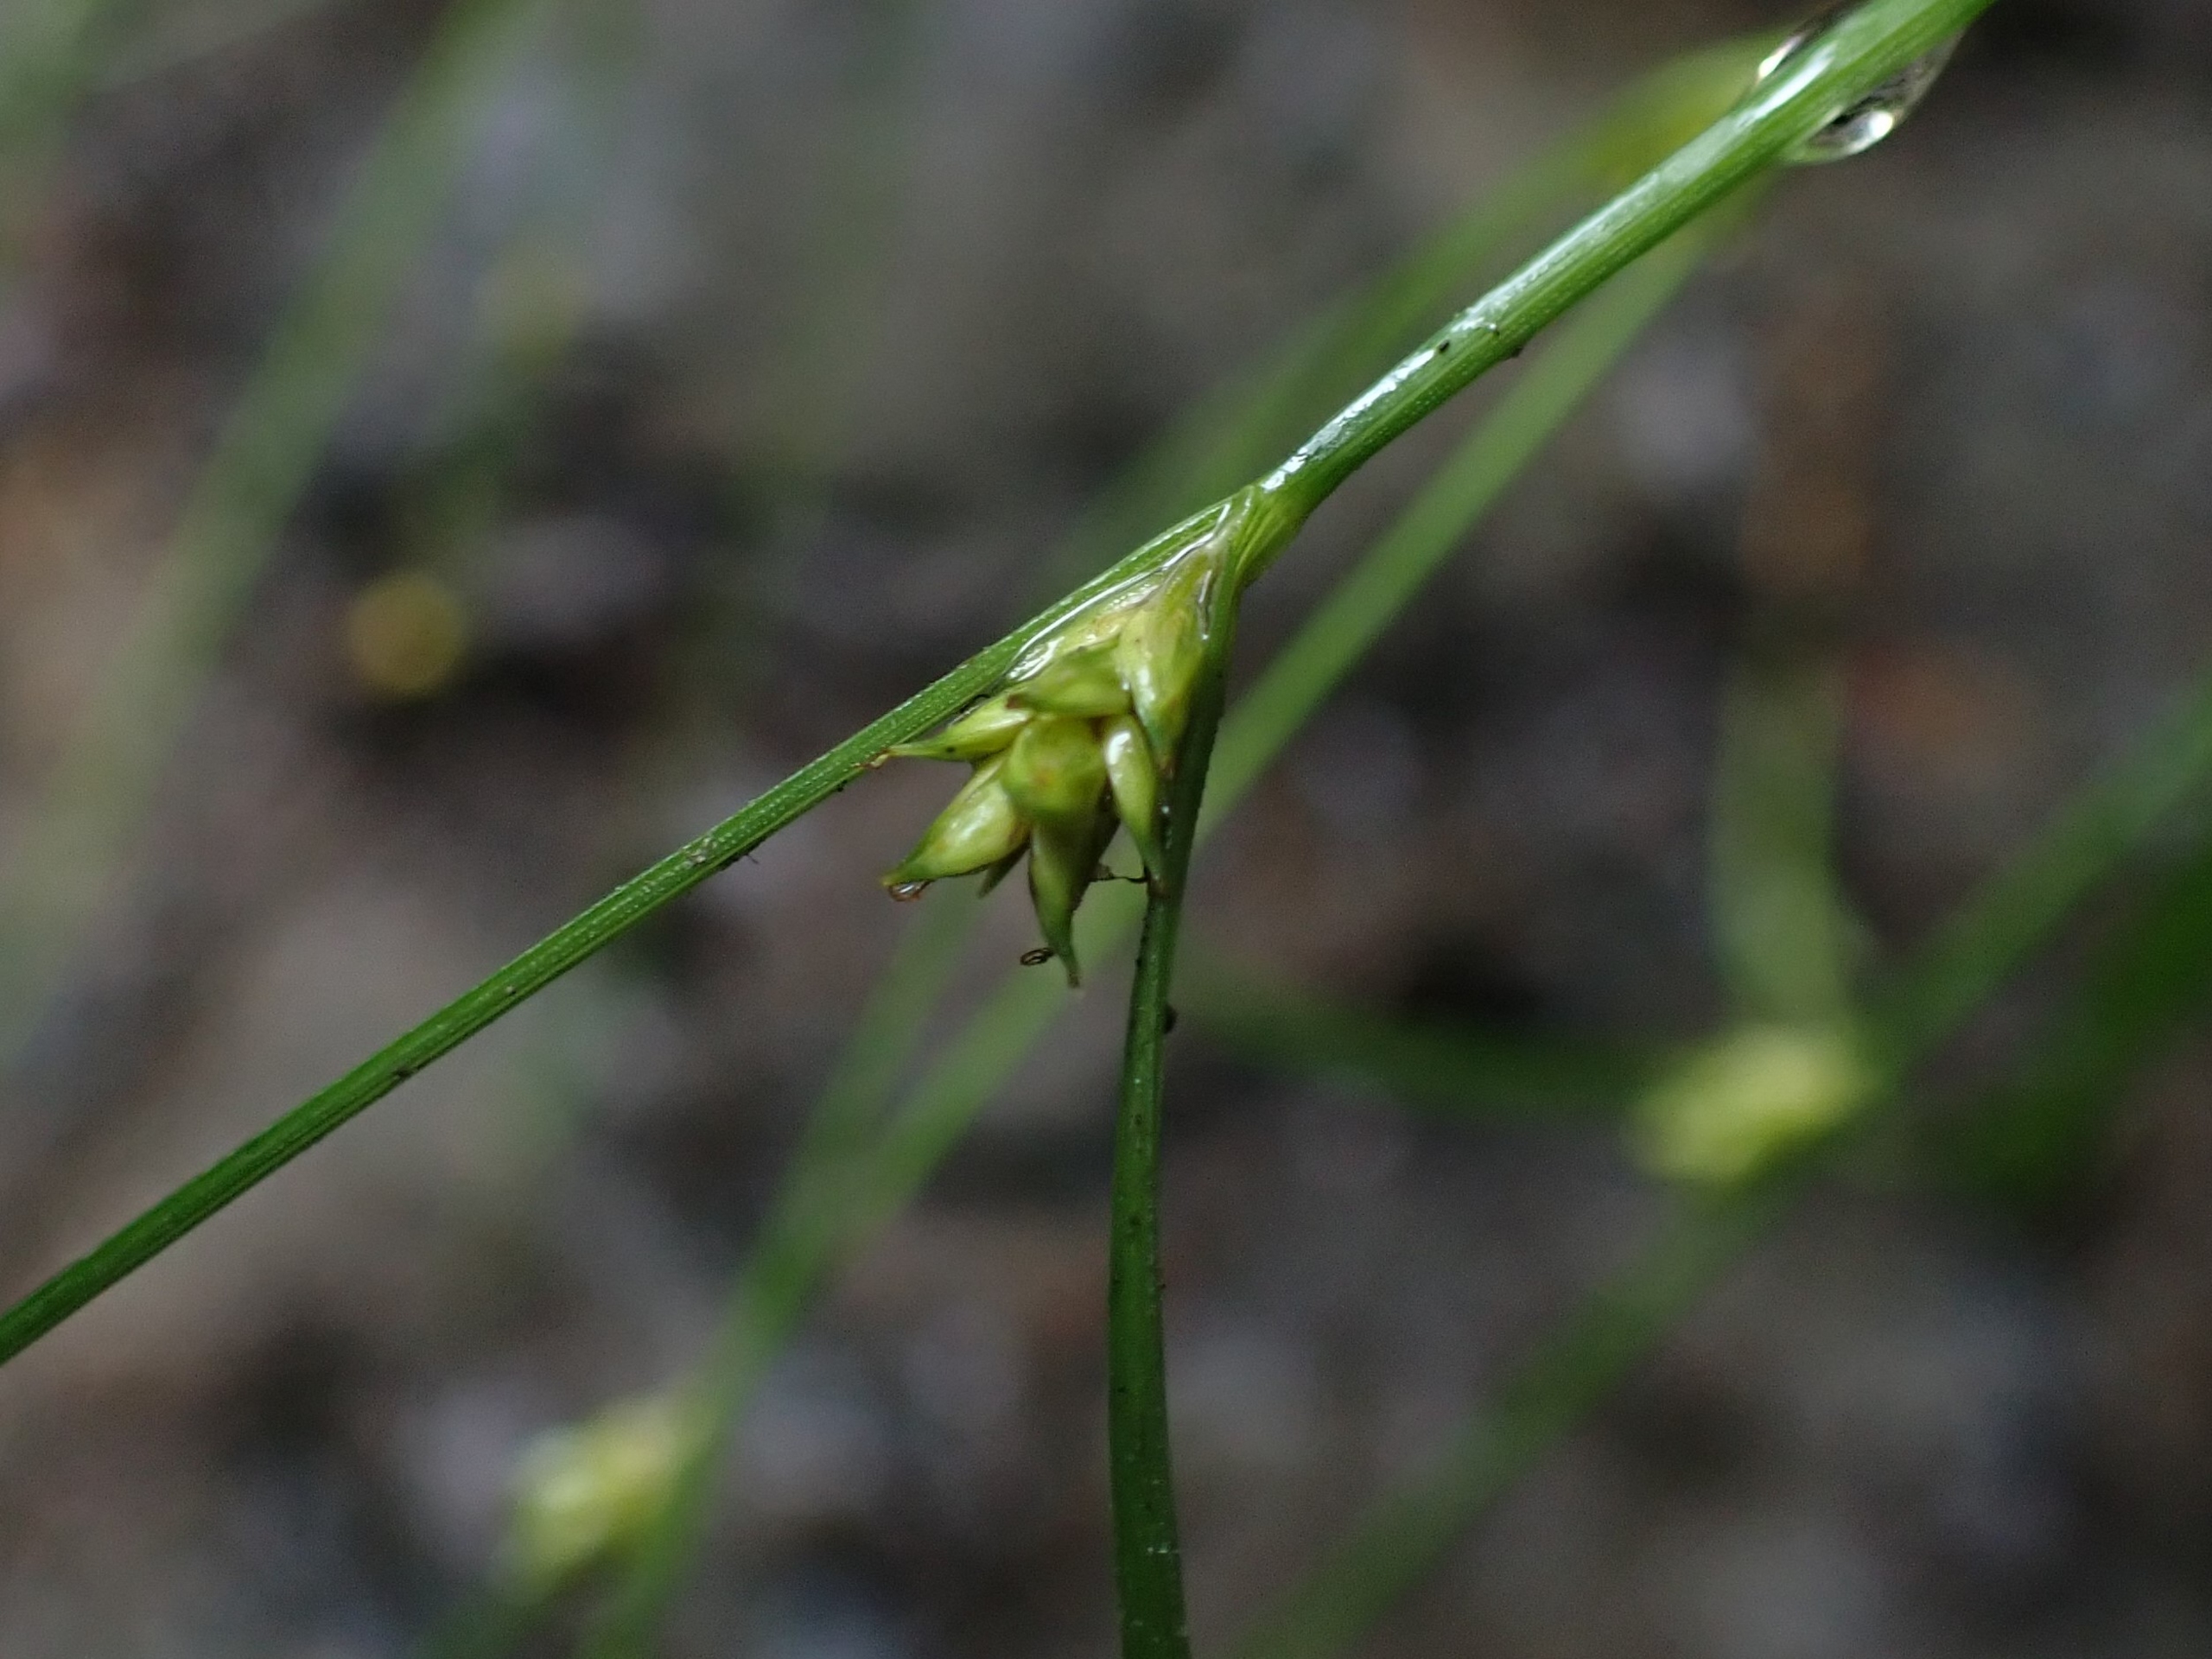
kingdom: Plantae
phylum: Tracheophyta
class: Liliopsida
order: Poales
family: Cyperaceae
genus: Carex
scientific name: Carex remota
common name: Akselblomstret star
